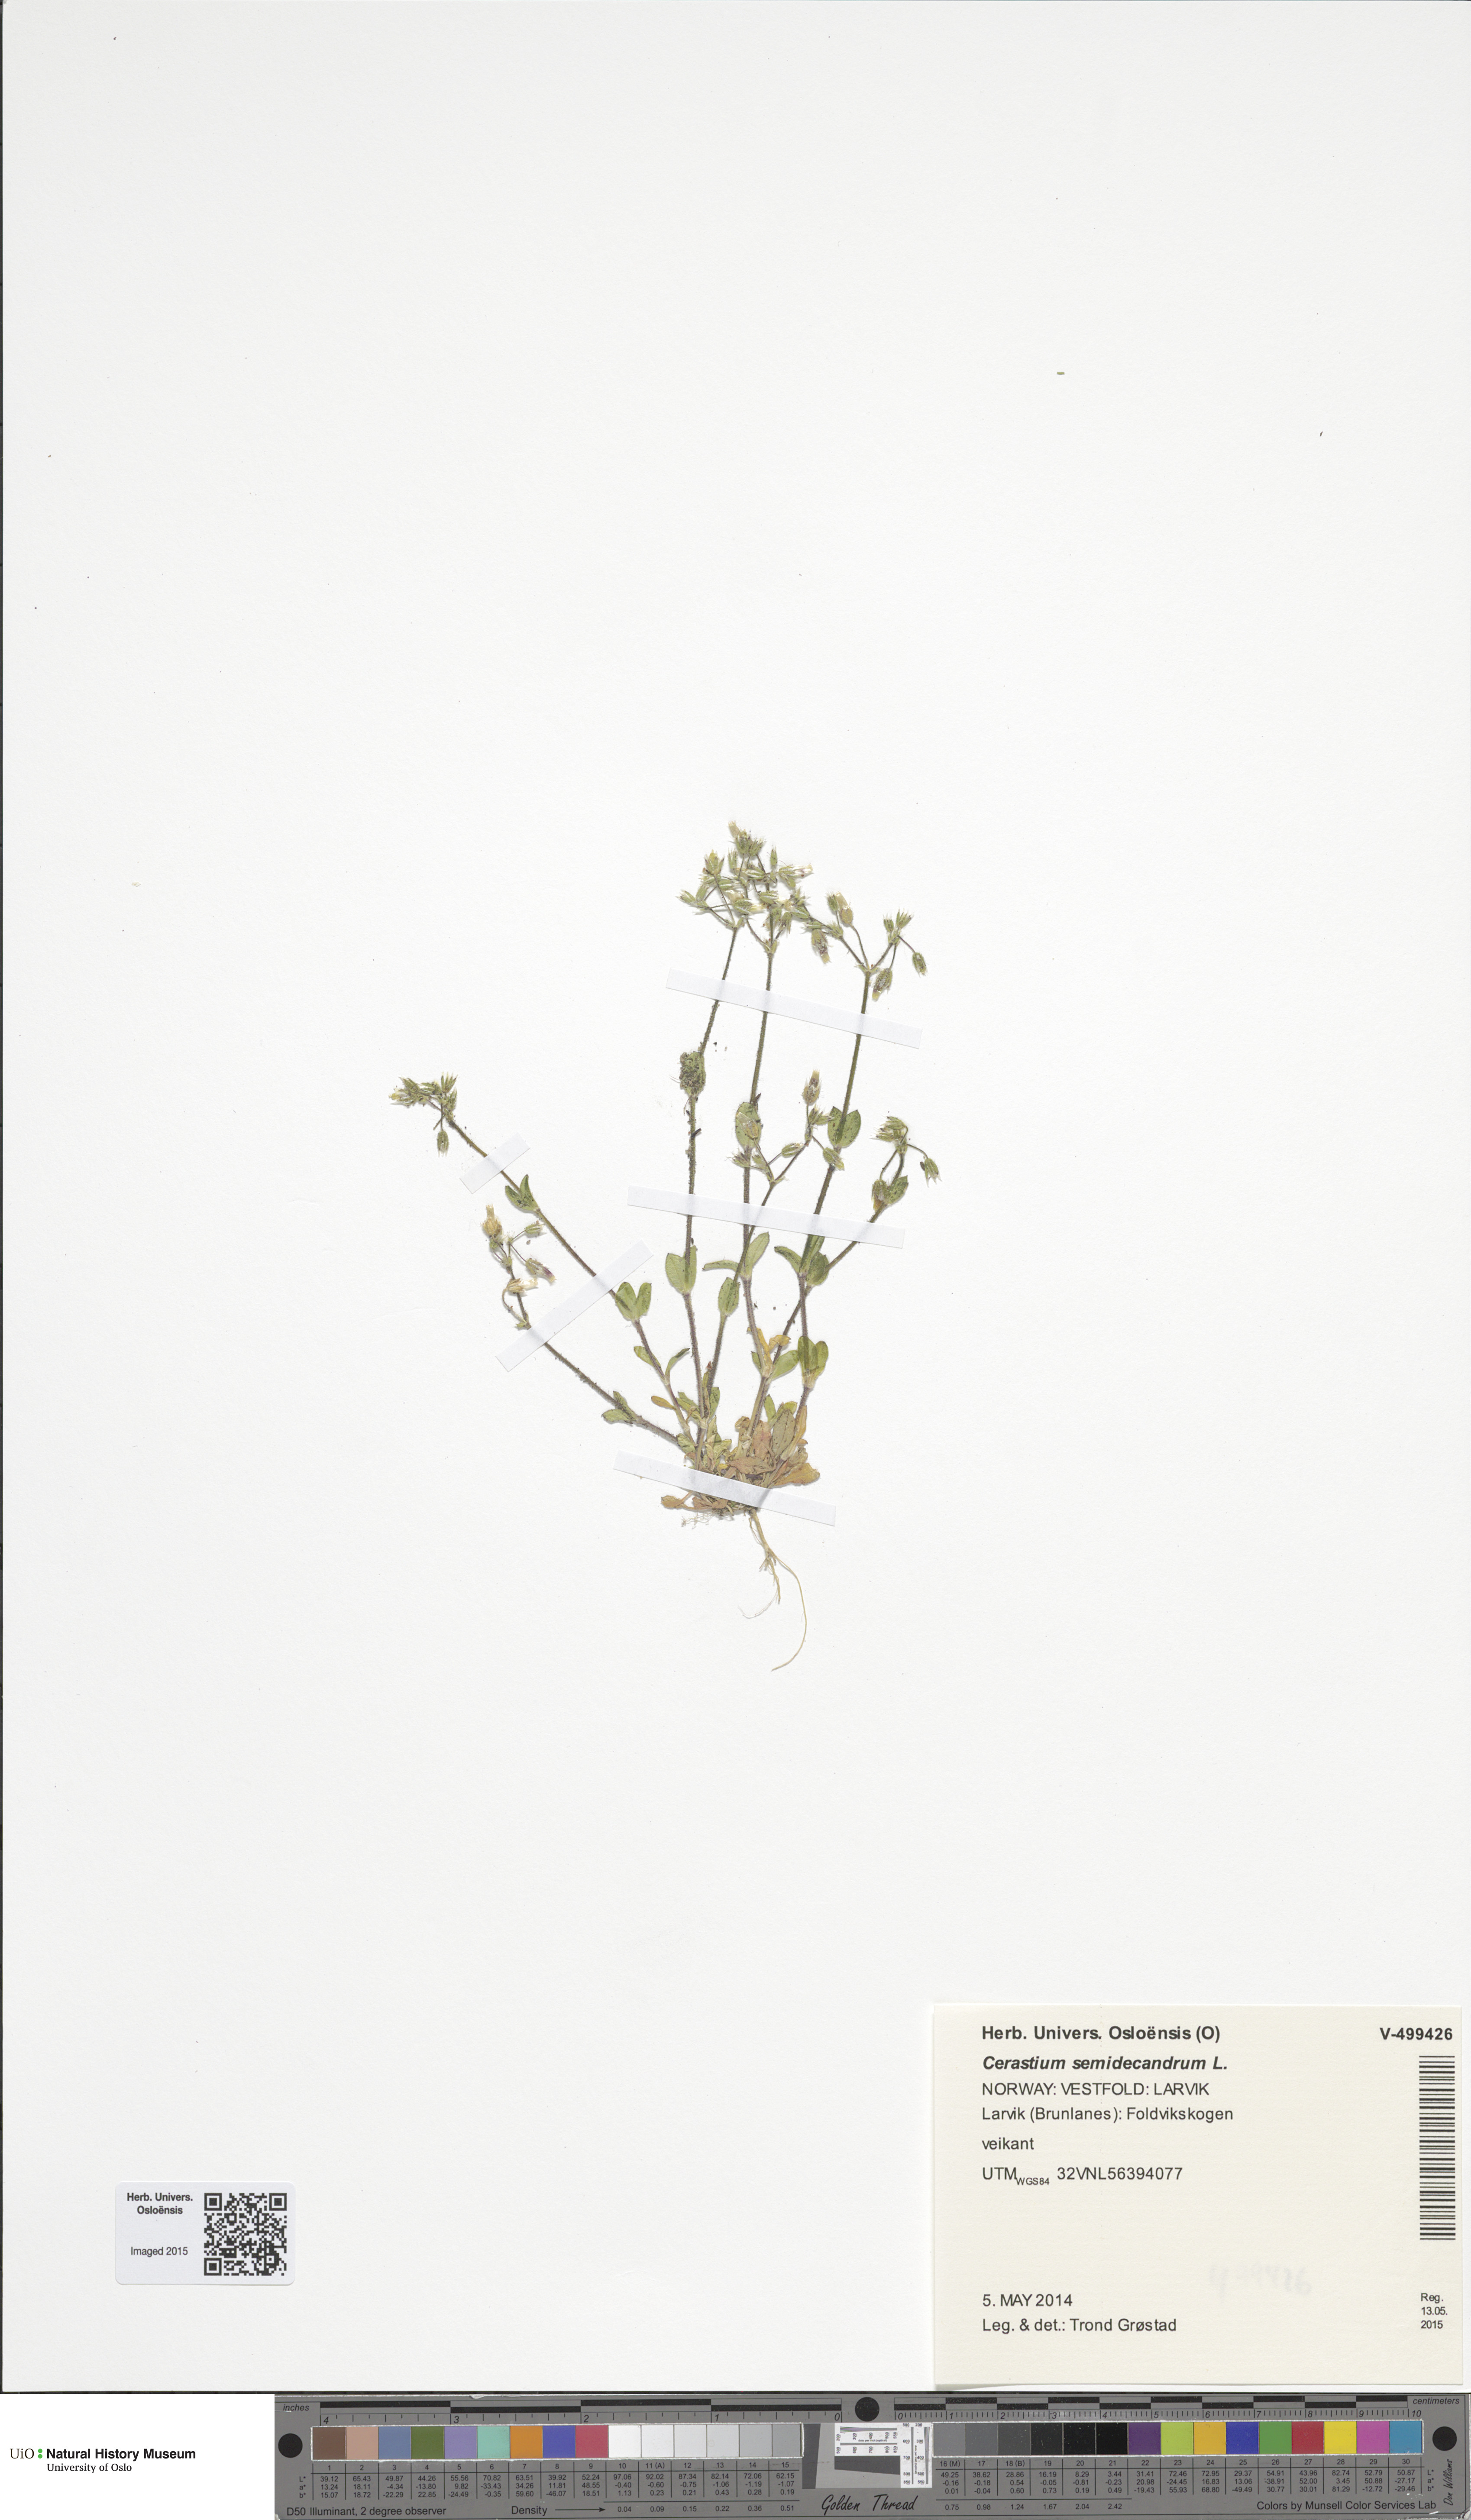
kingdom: Plantae
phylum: Tracheophyta
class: Magnoliopsida
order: Caryophyllales
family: Caryophyllaceae
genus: Cerastium
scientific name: Cerastium semidecandrum
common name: Little mouse-ear
